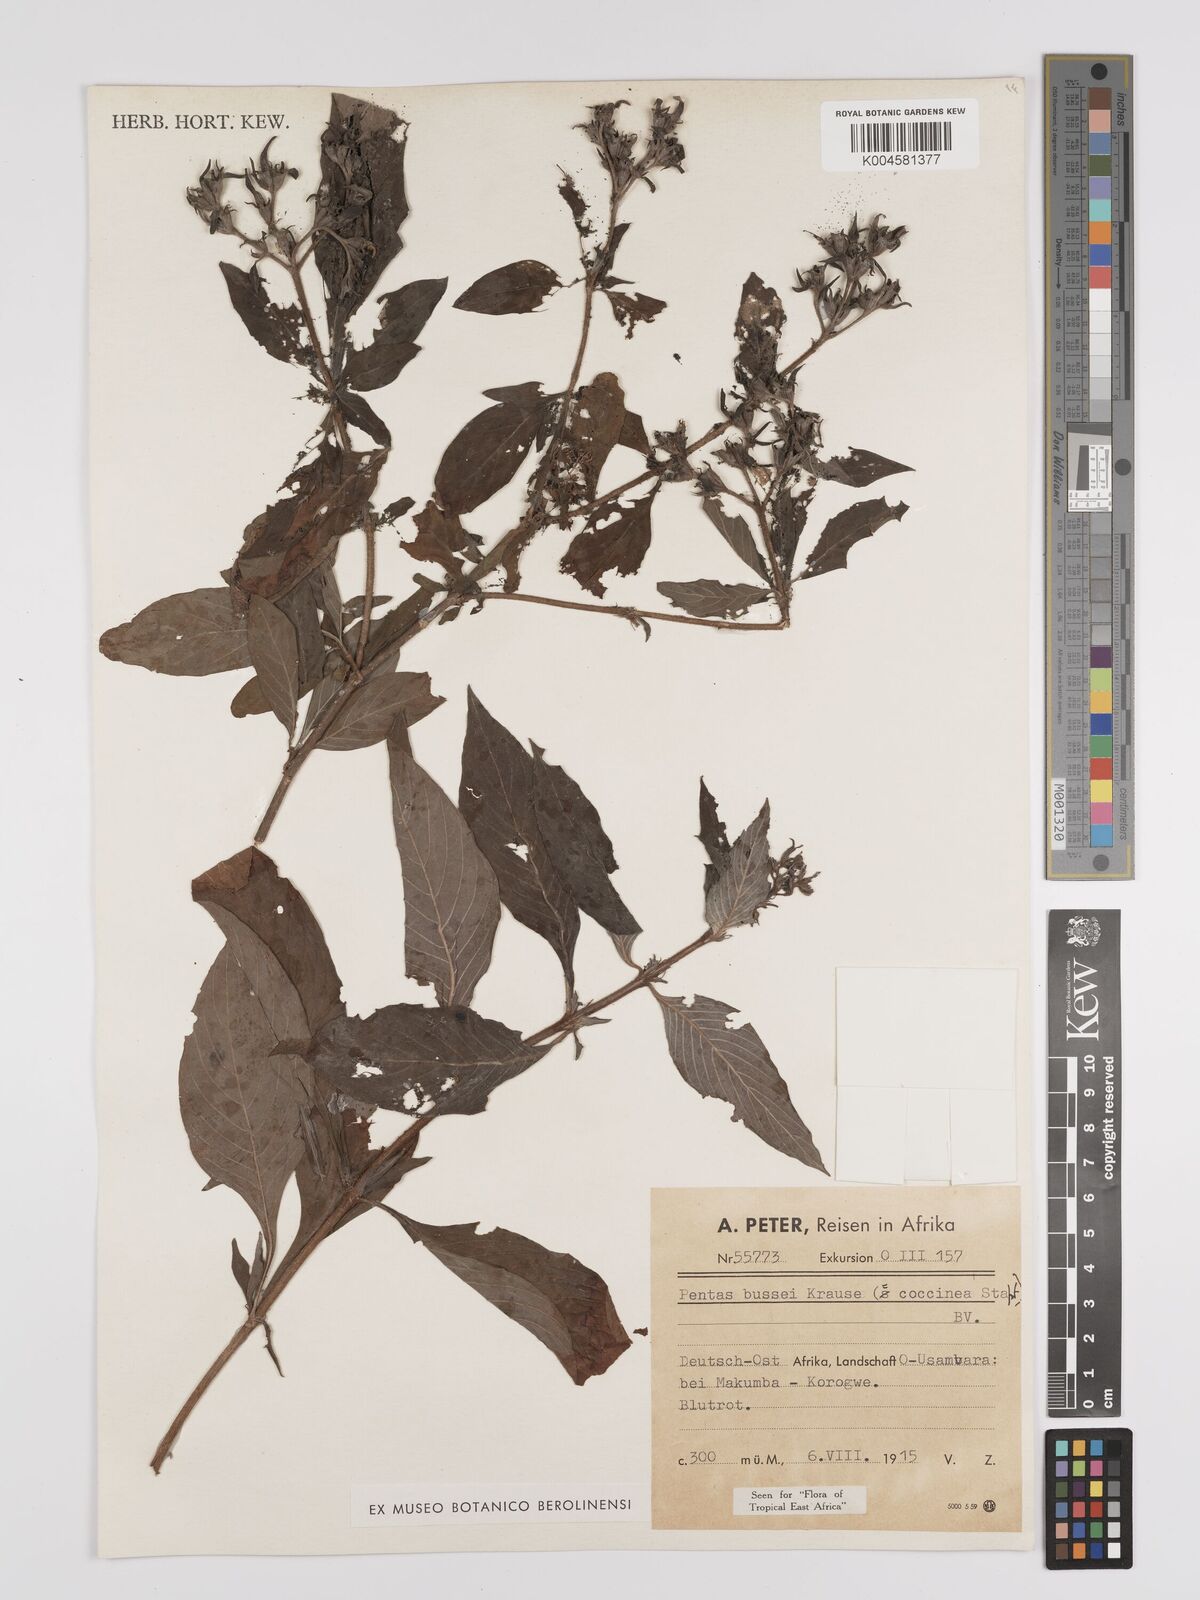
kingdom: Plantae
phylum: Tracheophyta
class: Magnoliopsida
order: Gentianales
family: Rubiaceae
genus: Rhodopentas
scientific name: Rhodopentas bussei
